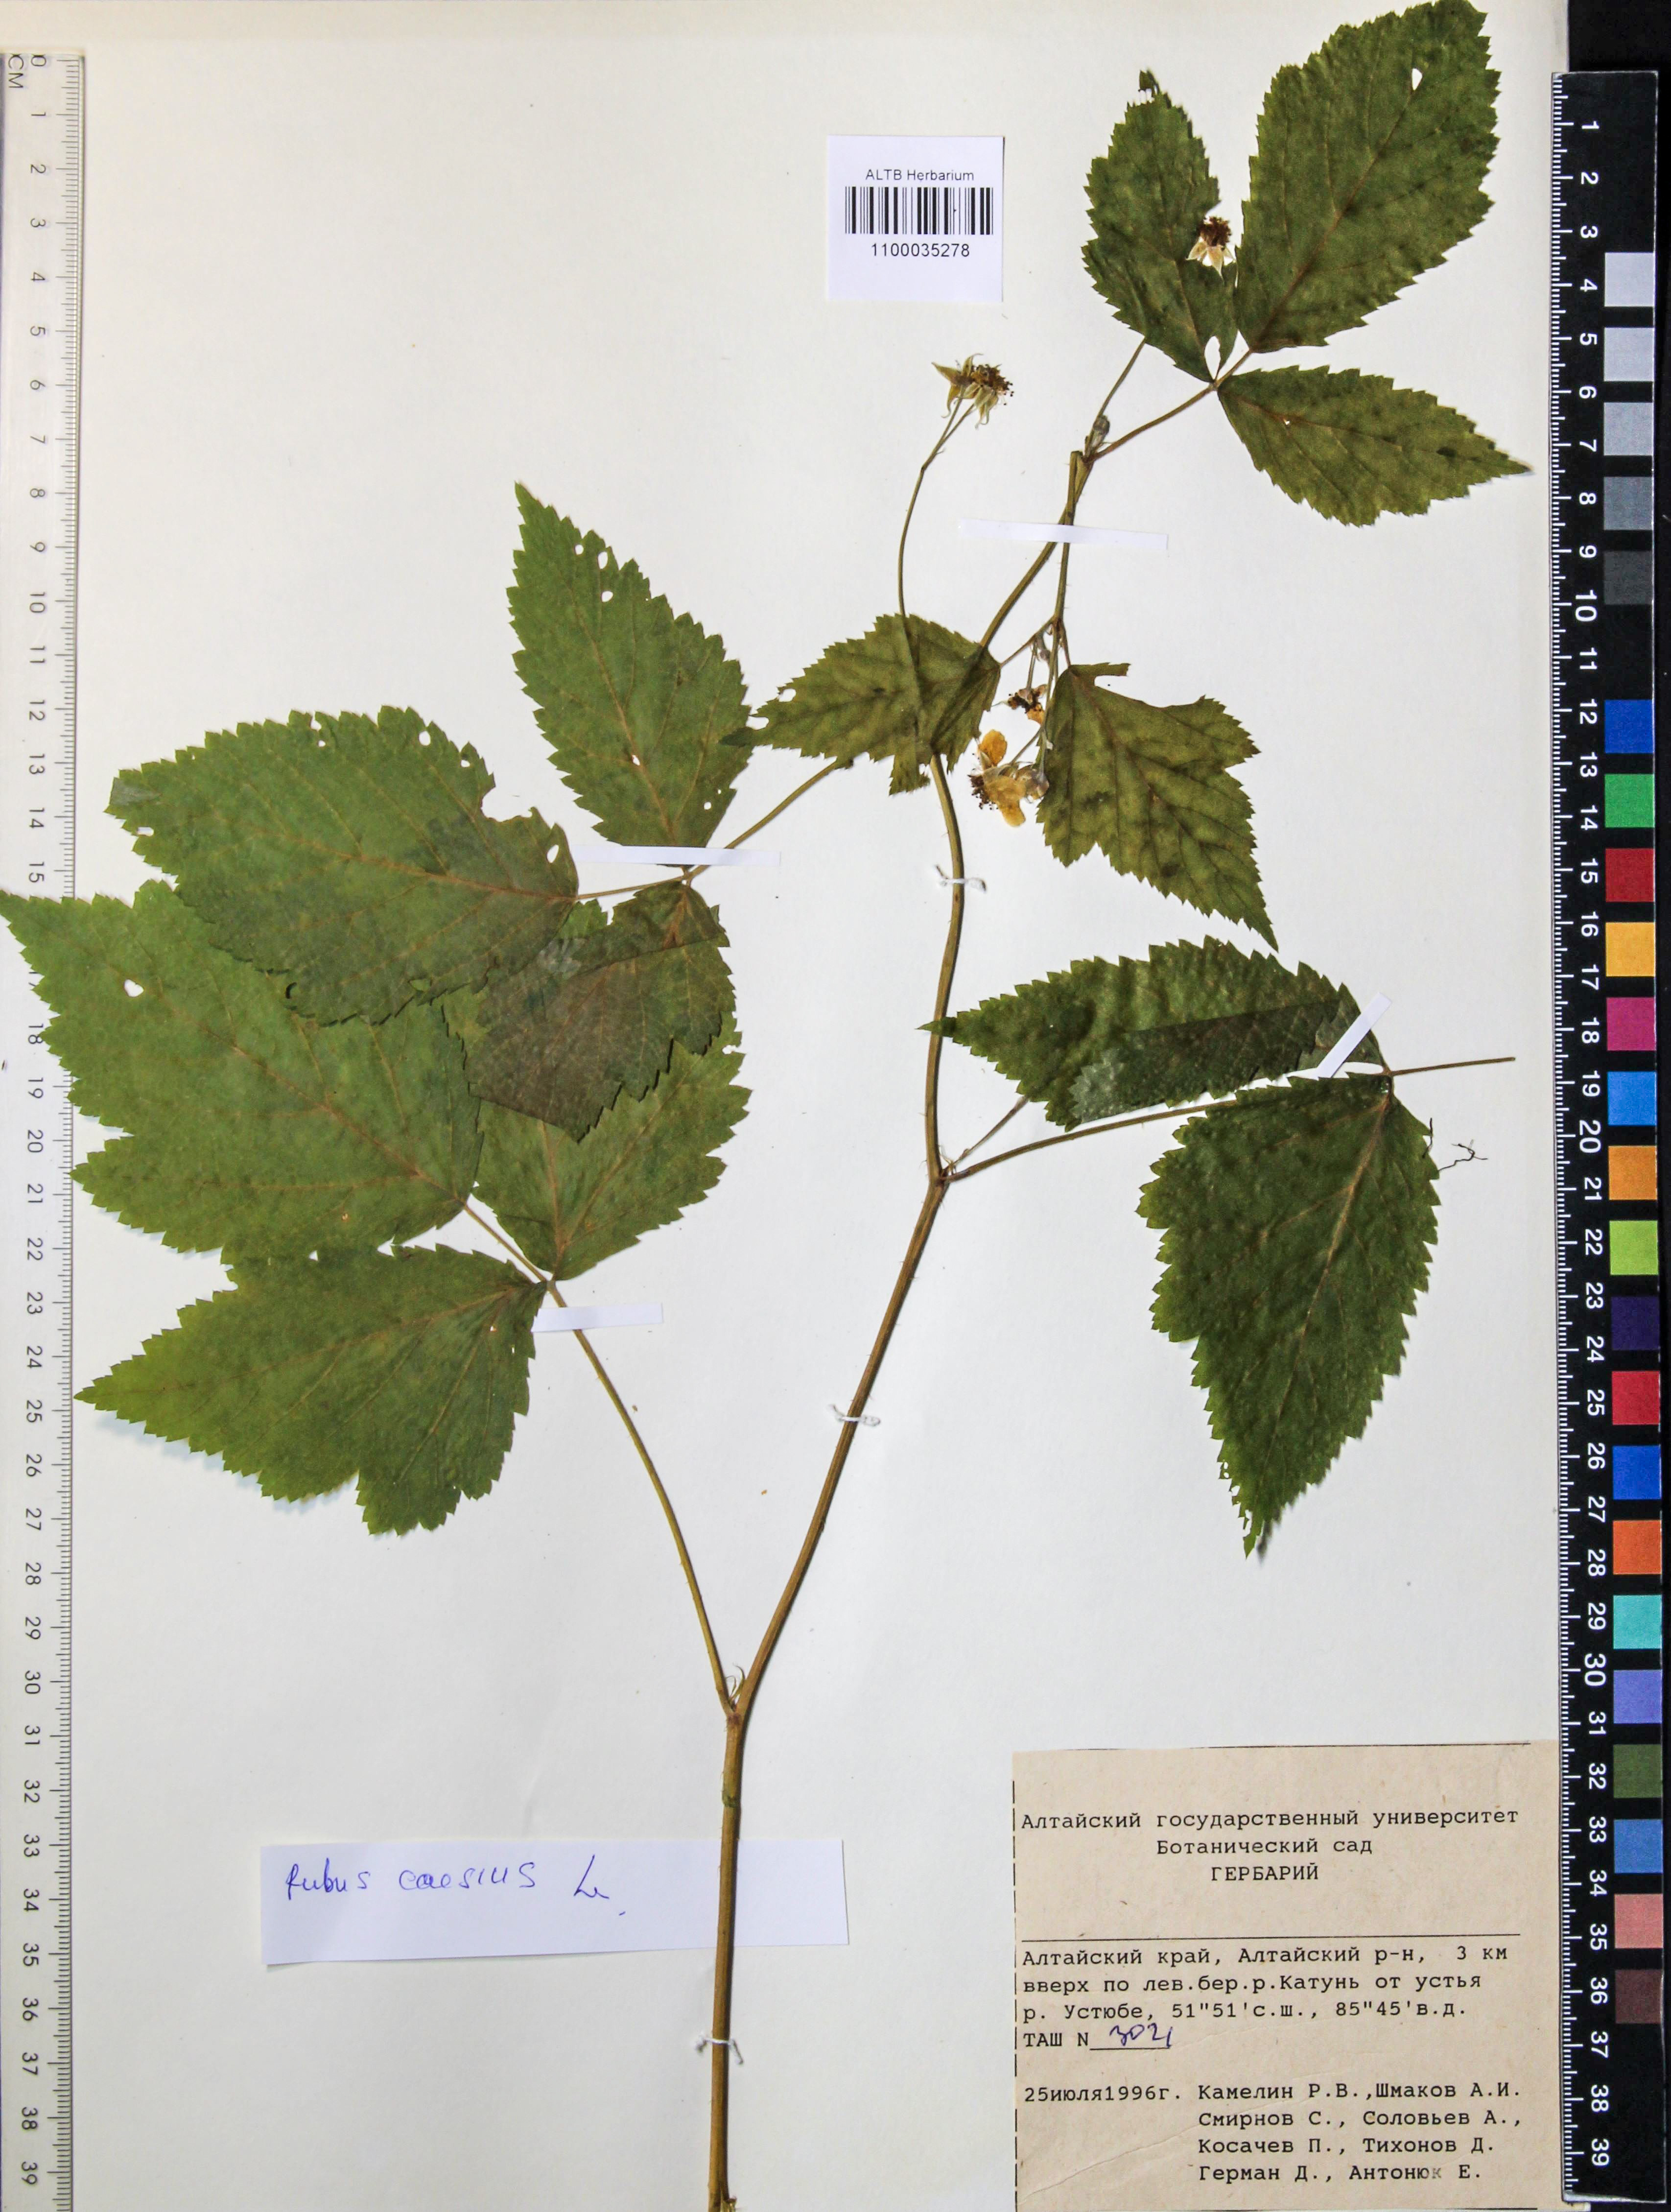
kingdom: Plantae
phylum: Tracheophyta
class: Magnoliopsida
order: Rosales
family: Rosaceae
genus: Rubus
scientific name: Rubus caesius
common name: Dewberry
